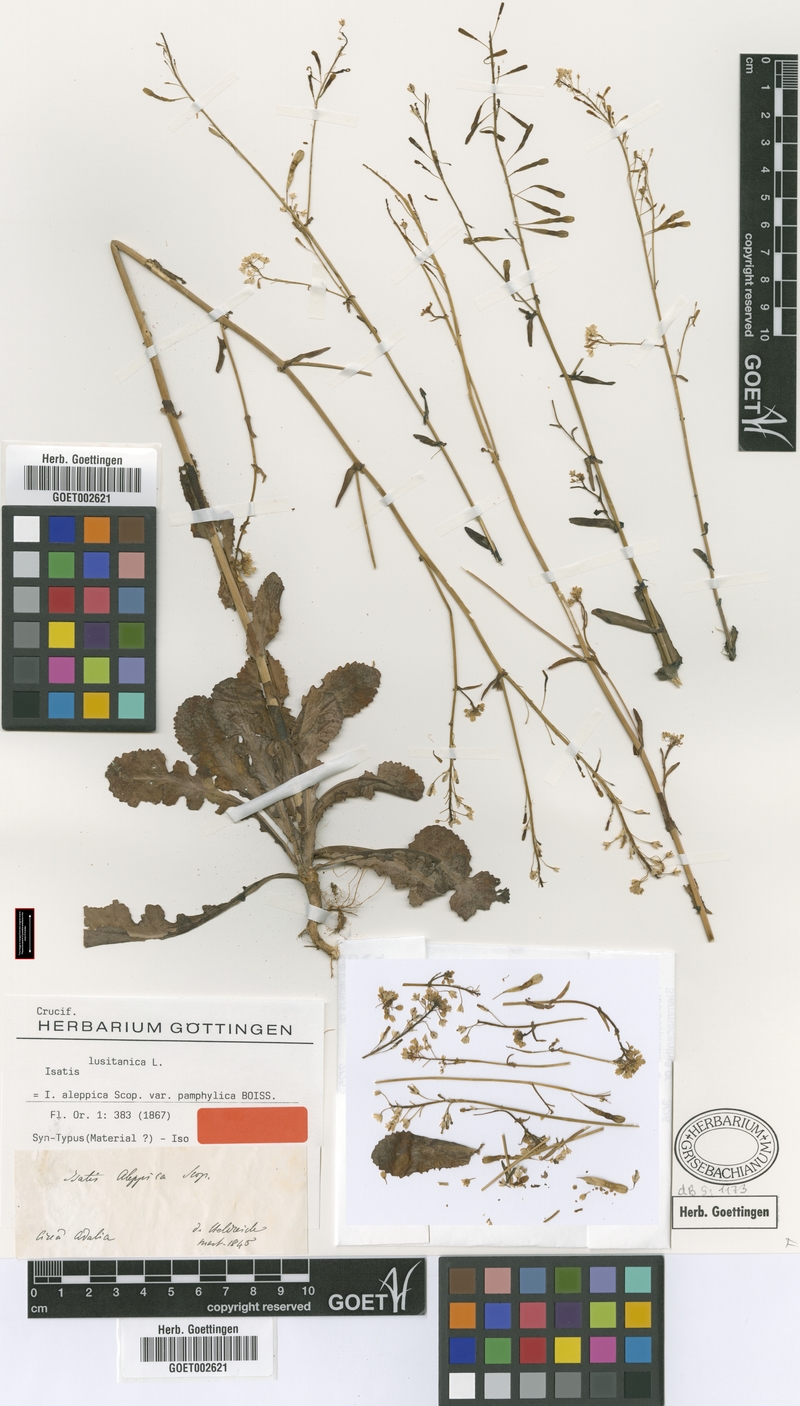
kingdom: Plantae
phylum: Tracheophyta
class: Magnoliopsida
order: Brassicales
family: Brassicaceae
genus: Isatis
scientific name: Isatis lusitanica
